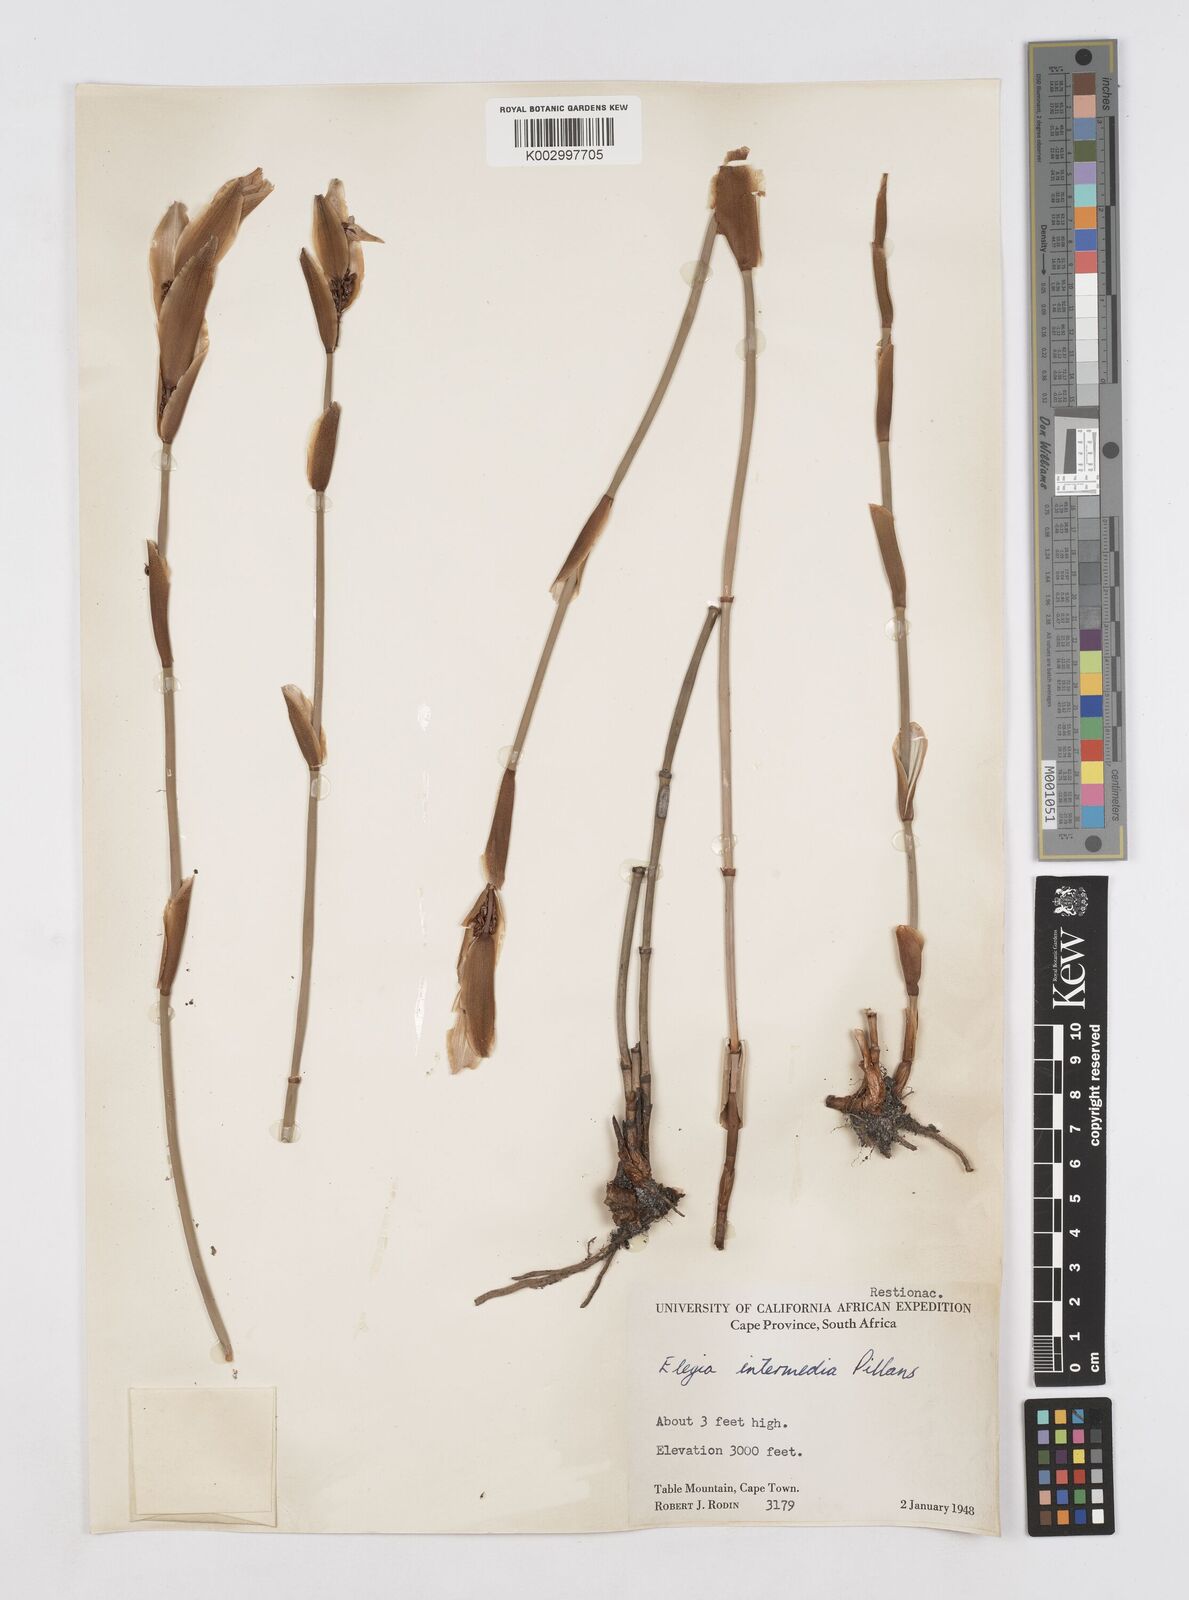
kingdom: Plantae
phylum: Tracheophyta
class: Liliopsida
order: Poales
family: Restionaceae
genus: Elegia
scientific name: Elegia intermedia
